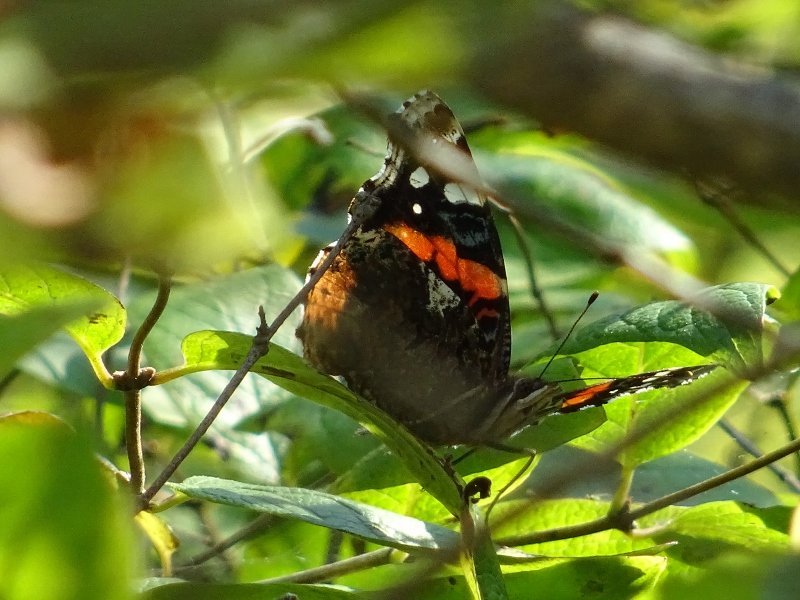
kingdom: Animalia
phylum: Arthropoda
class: Insecta
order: Lepidoptera
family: Nymphalidae
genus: Vanessa
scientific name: Vanessa atalanta
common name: Red Admiral
